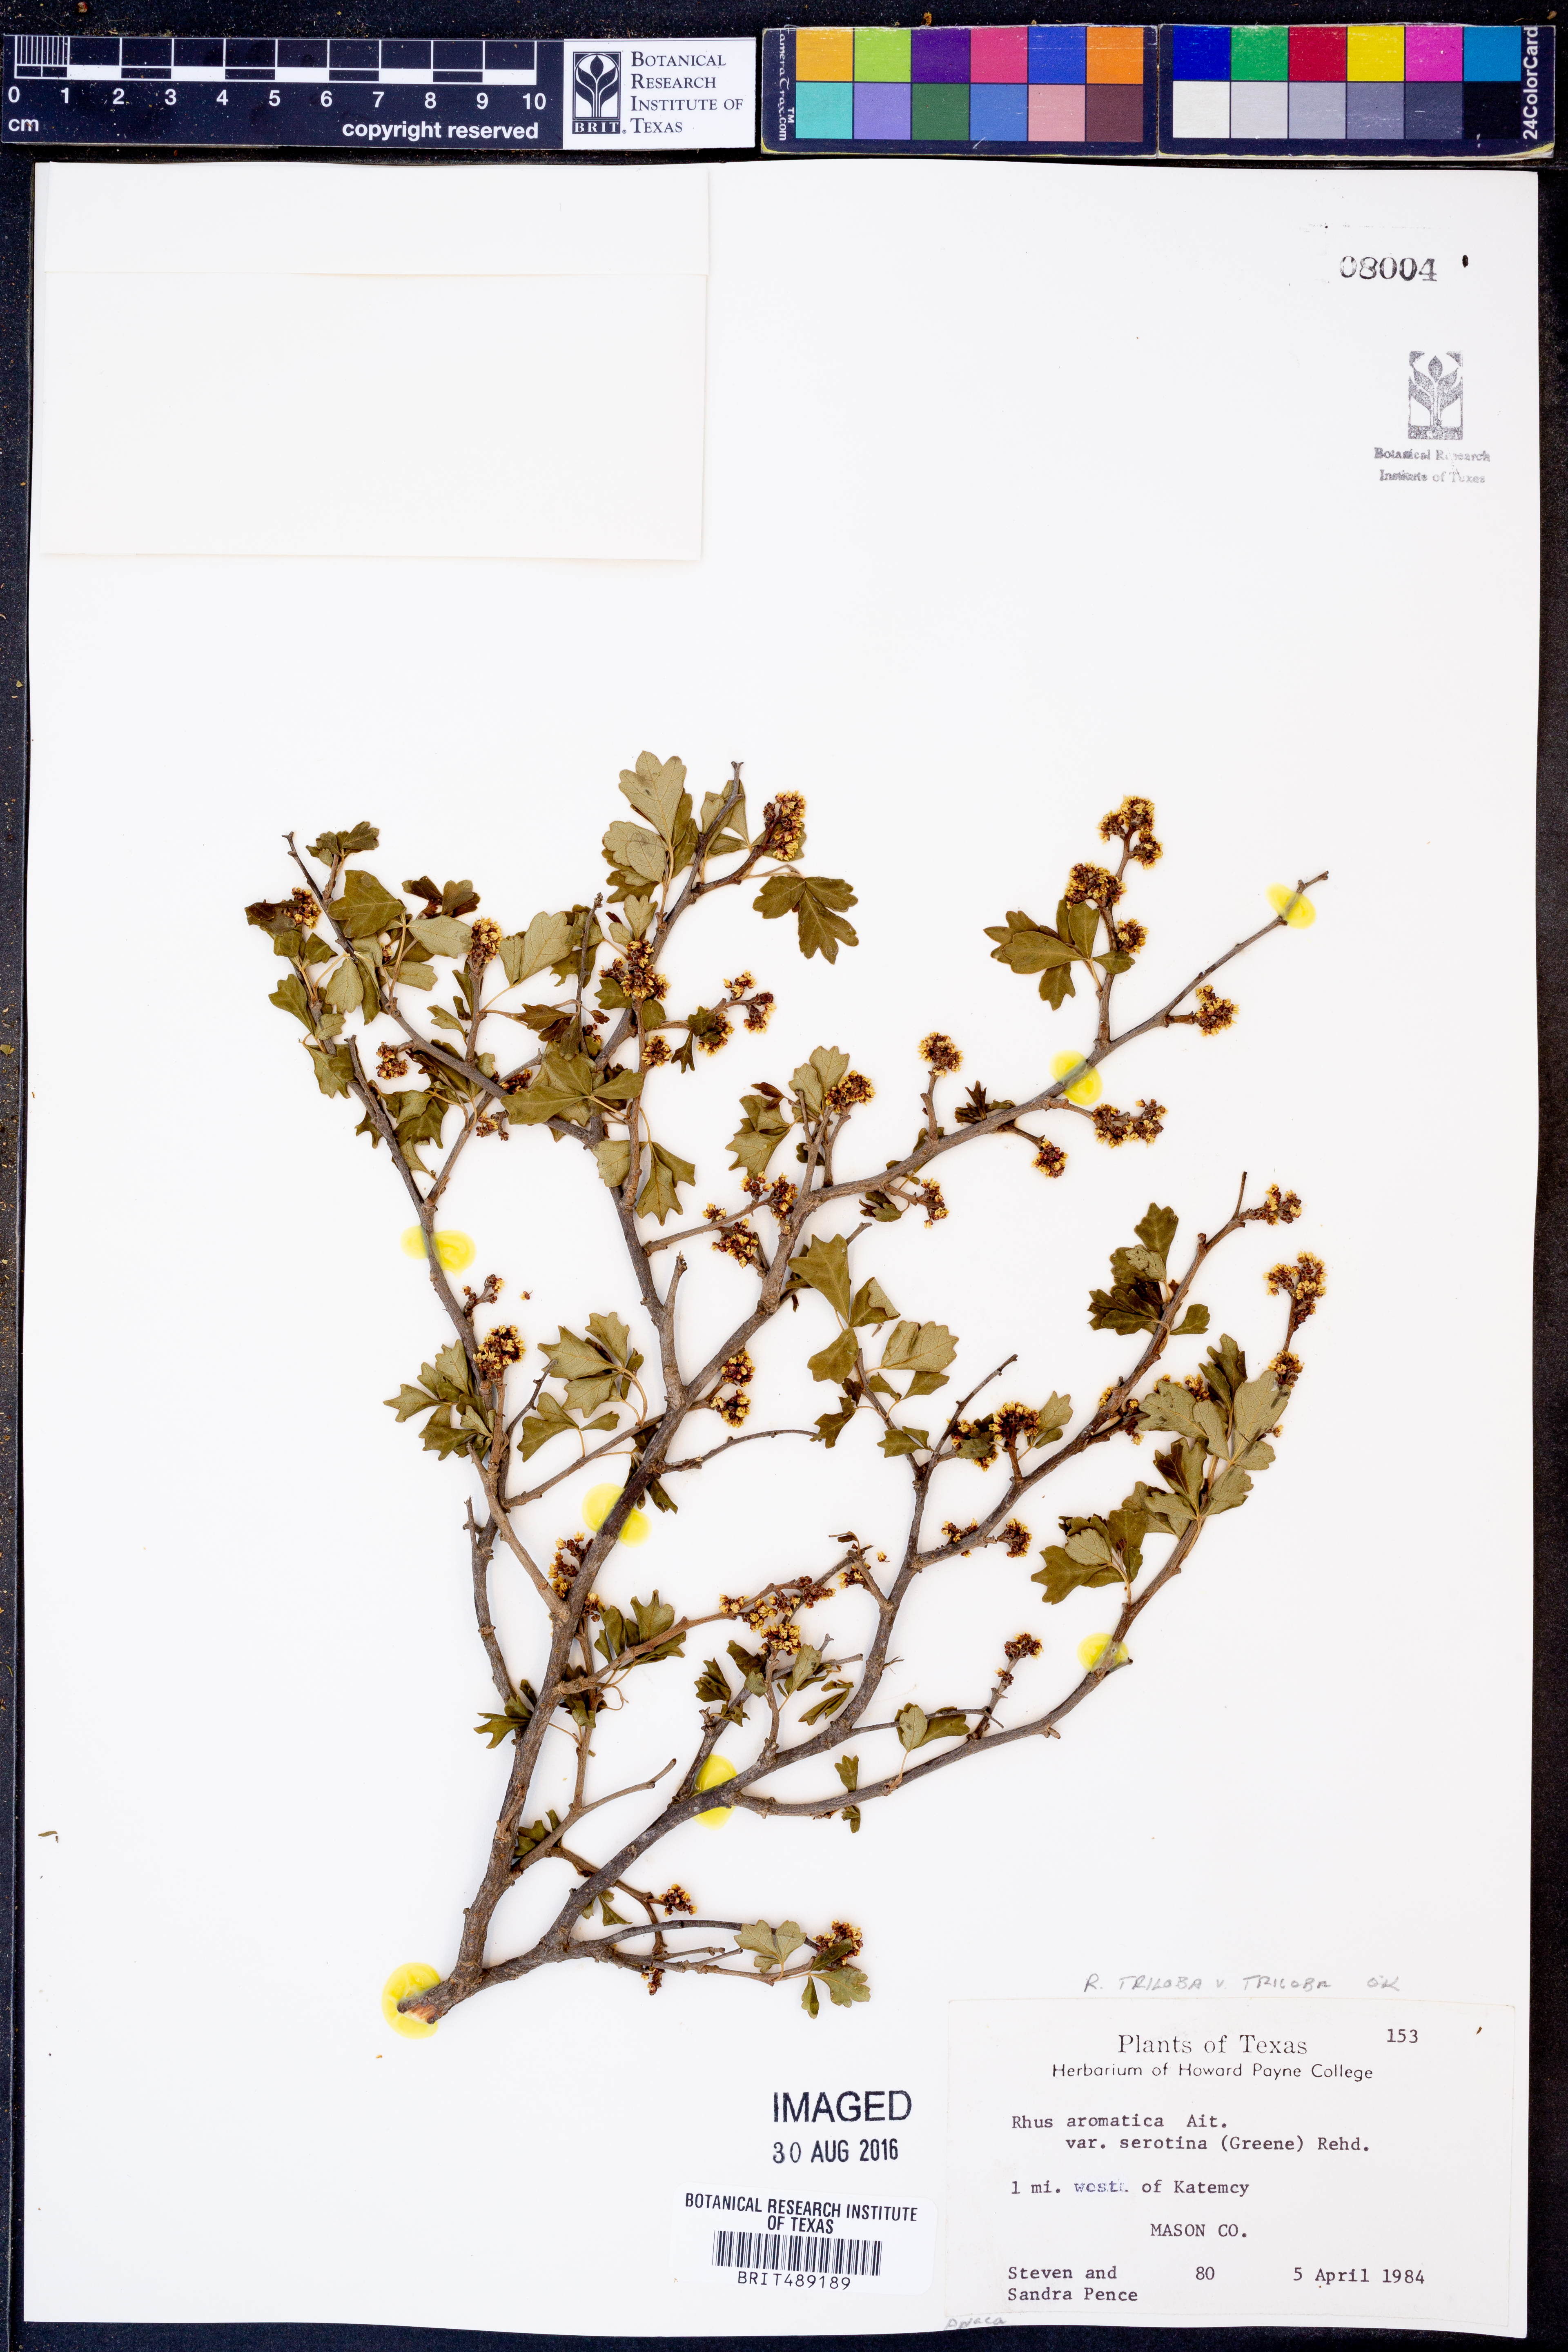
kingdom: Plantae
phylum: Tracheophyta
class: Magnoliopsida
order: Sapindales
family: Anacardiaceae
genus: Rhus
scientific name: Rhus trilobata
